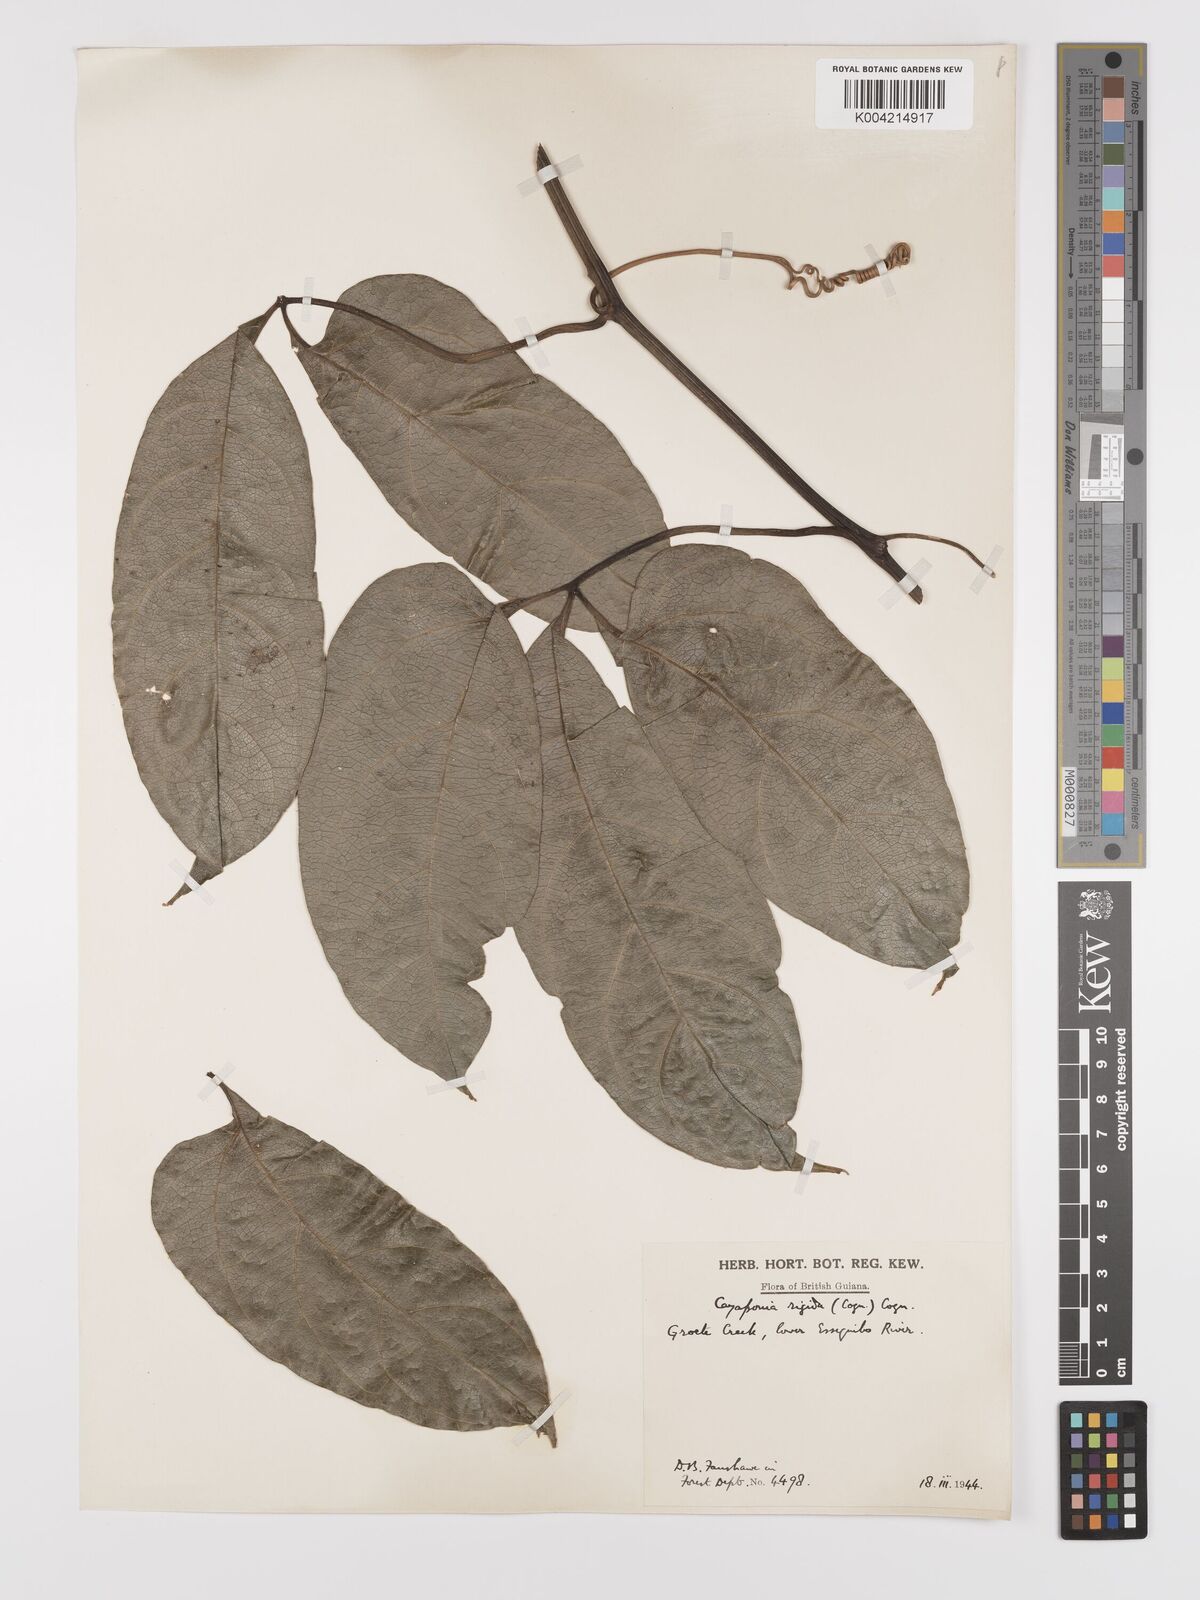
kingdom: Plantae
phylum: Tracheophyta
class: Magnoliopsida
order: Cucurbitales
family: Cucurbitaceae
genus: Cayaponia
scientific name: Cayaponia rigida
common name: Boskomkommer
